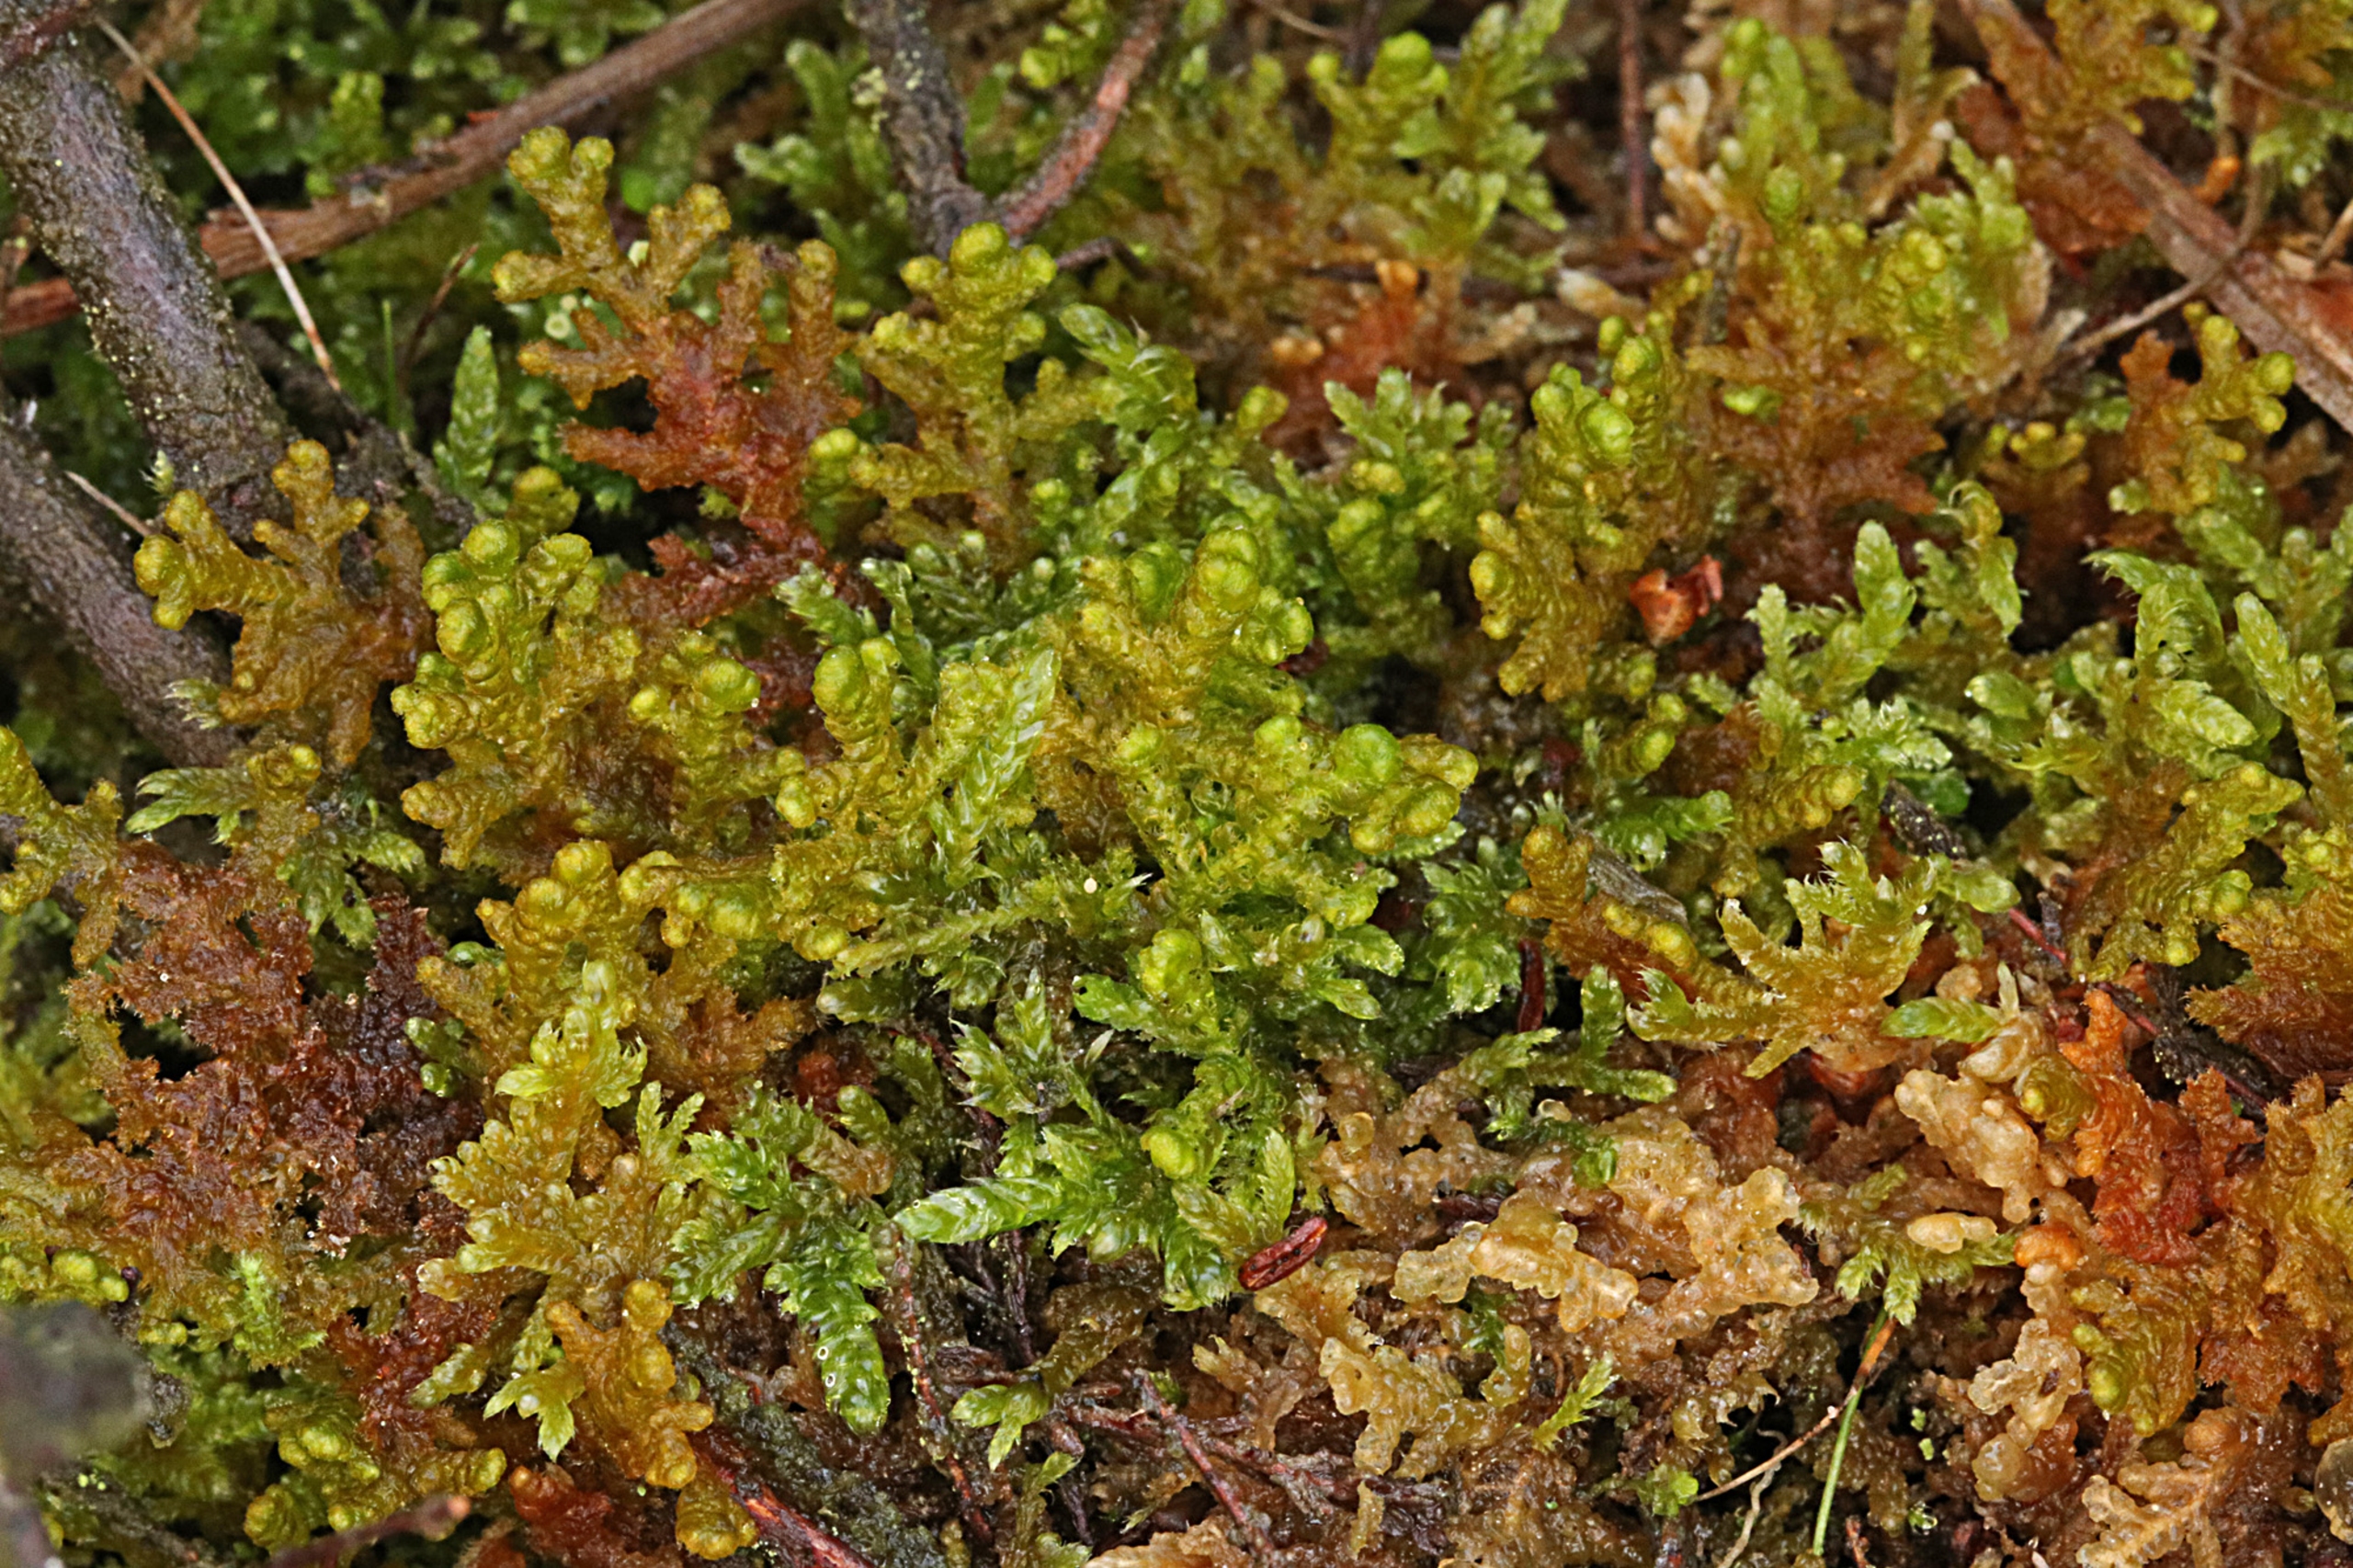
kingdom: Plantae
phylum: Marchantiophyta
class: Jungermanniopsida
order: Ptilidiales
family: Ptilidiaceae
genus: Ptilidium
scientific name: Ptilidium ciliare
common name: Almindelig frynsemos
